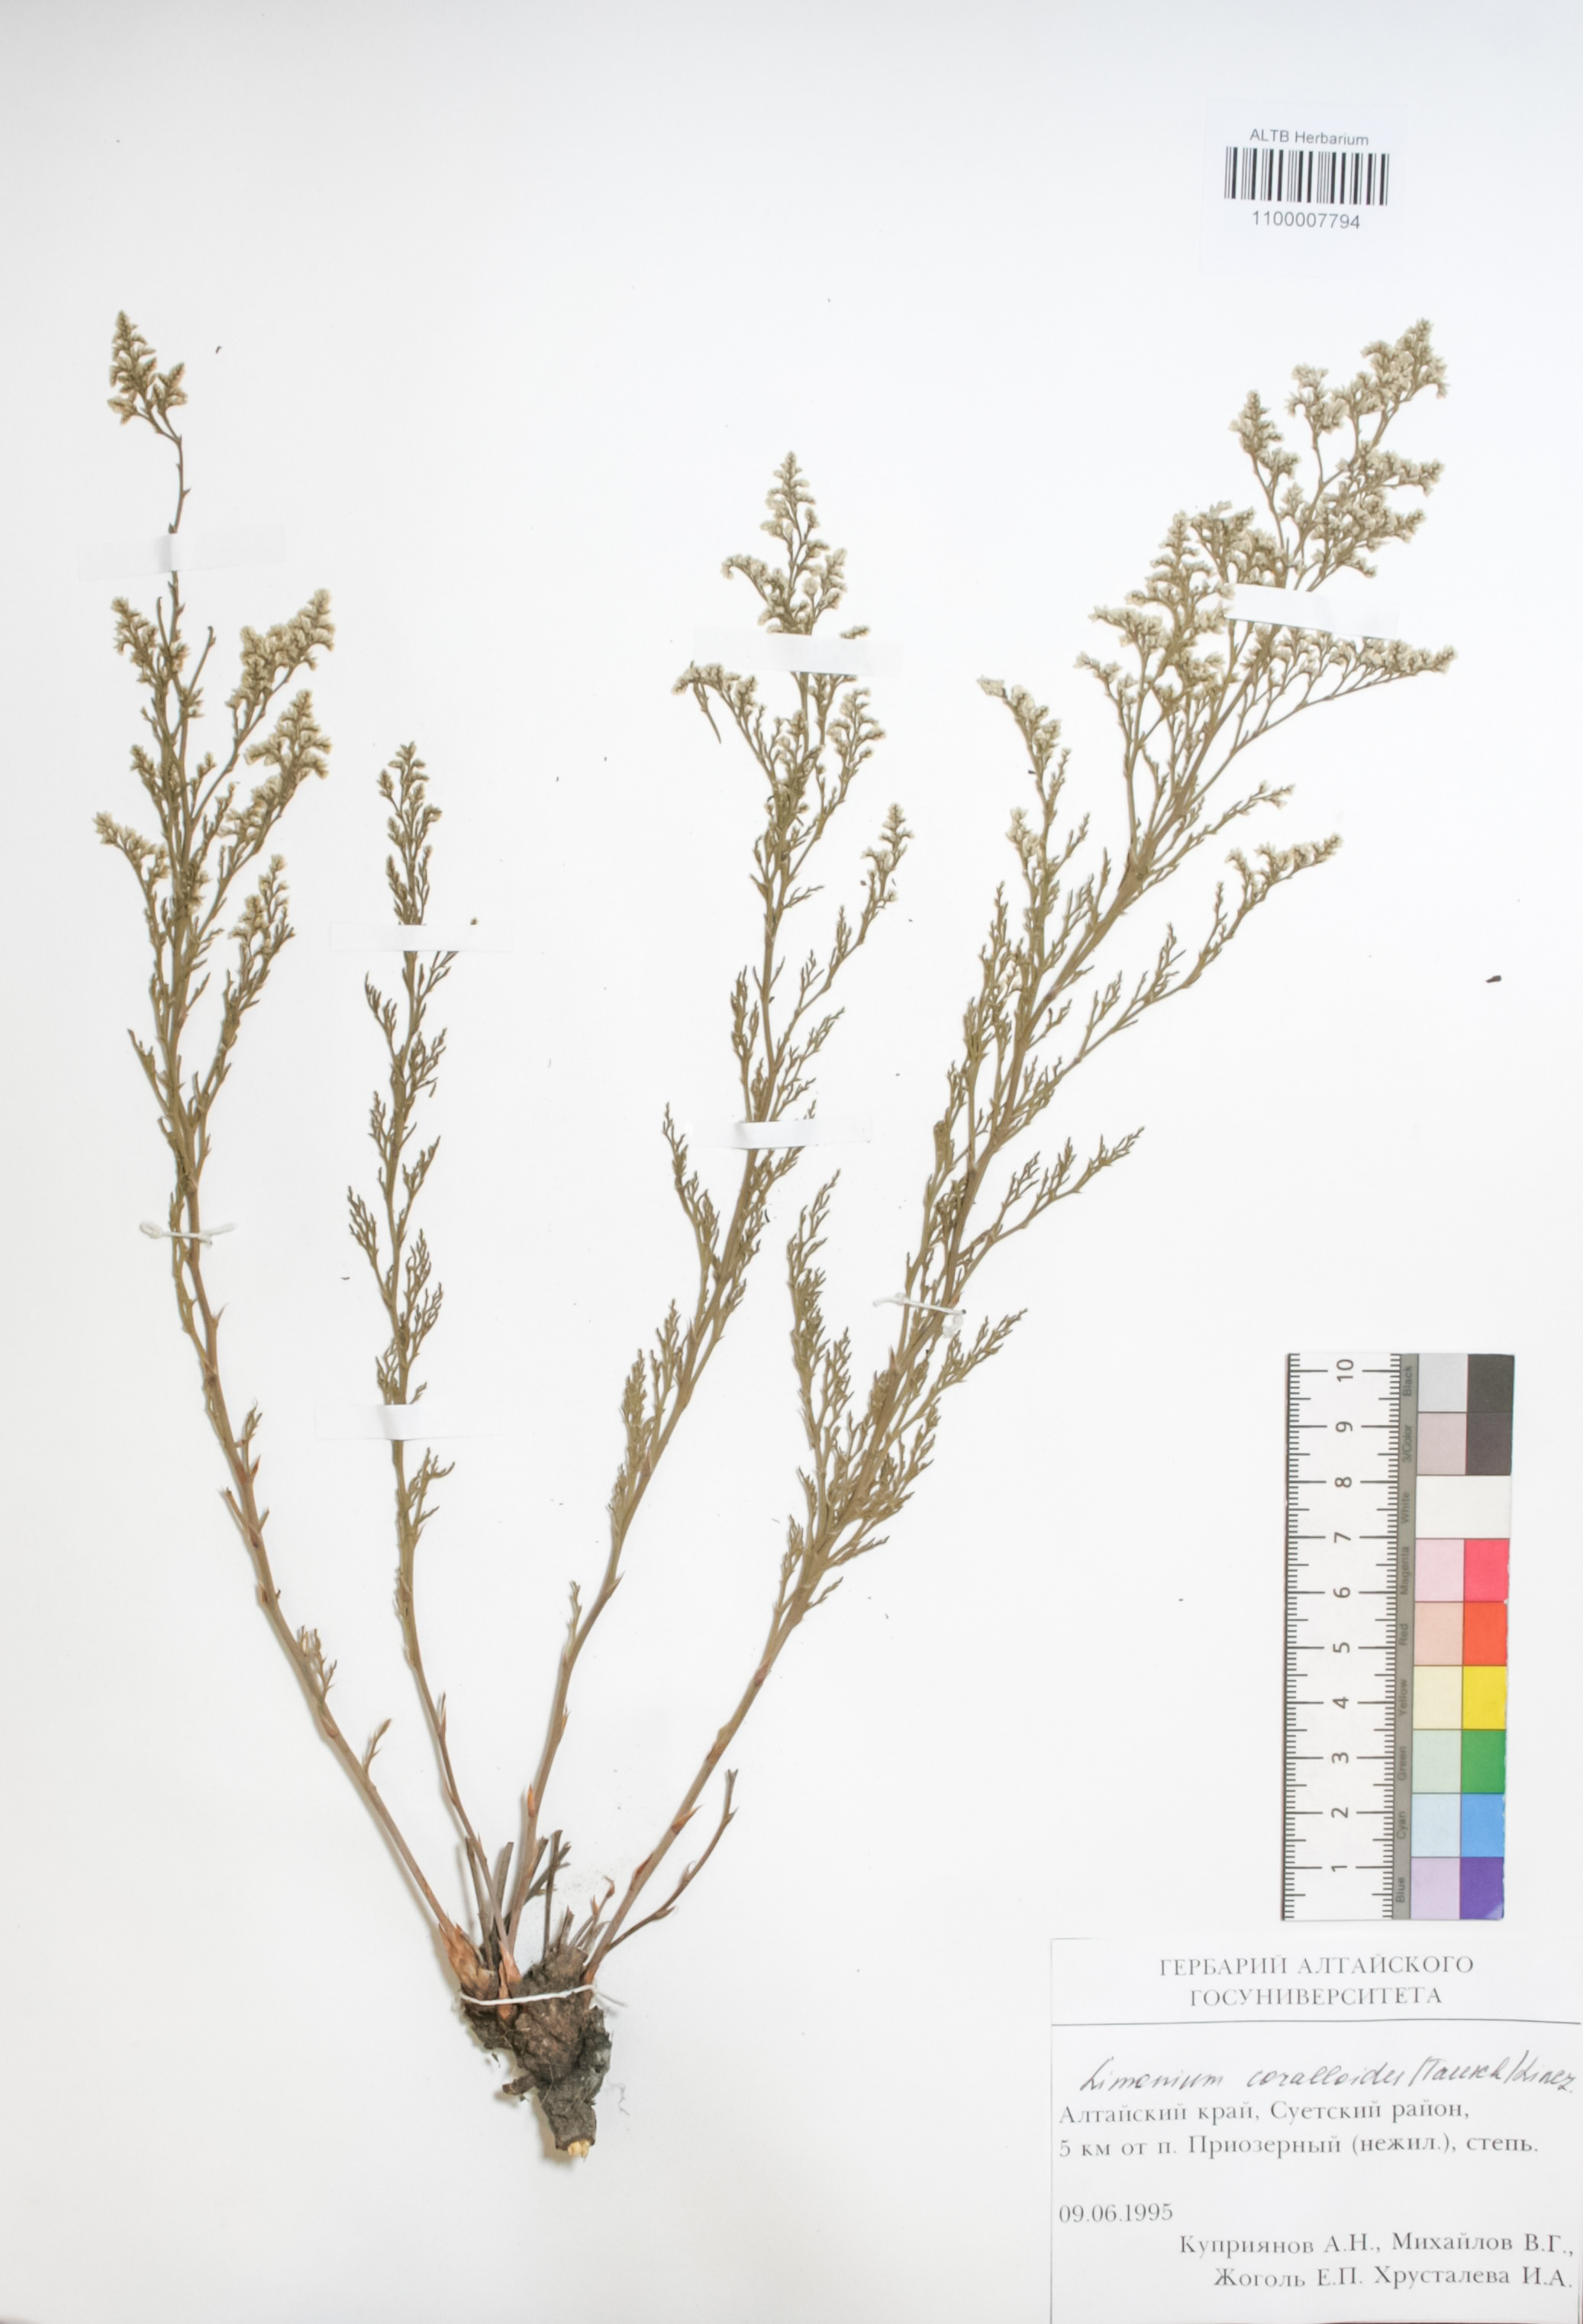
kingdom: Plantae
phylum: Tracheophyta
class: Magnoliopsida
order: Caryophyllales
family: Plumbaginaceae
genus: Limonium
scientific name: Limonium coralloides
